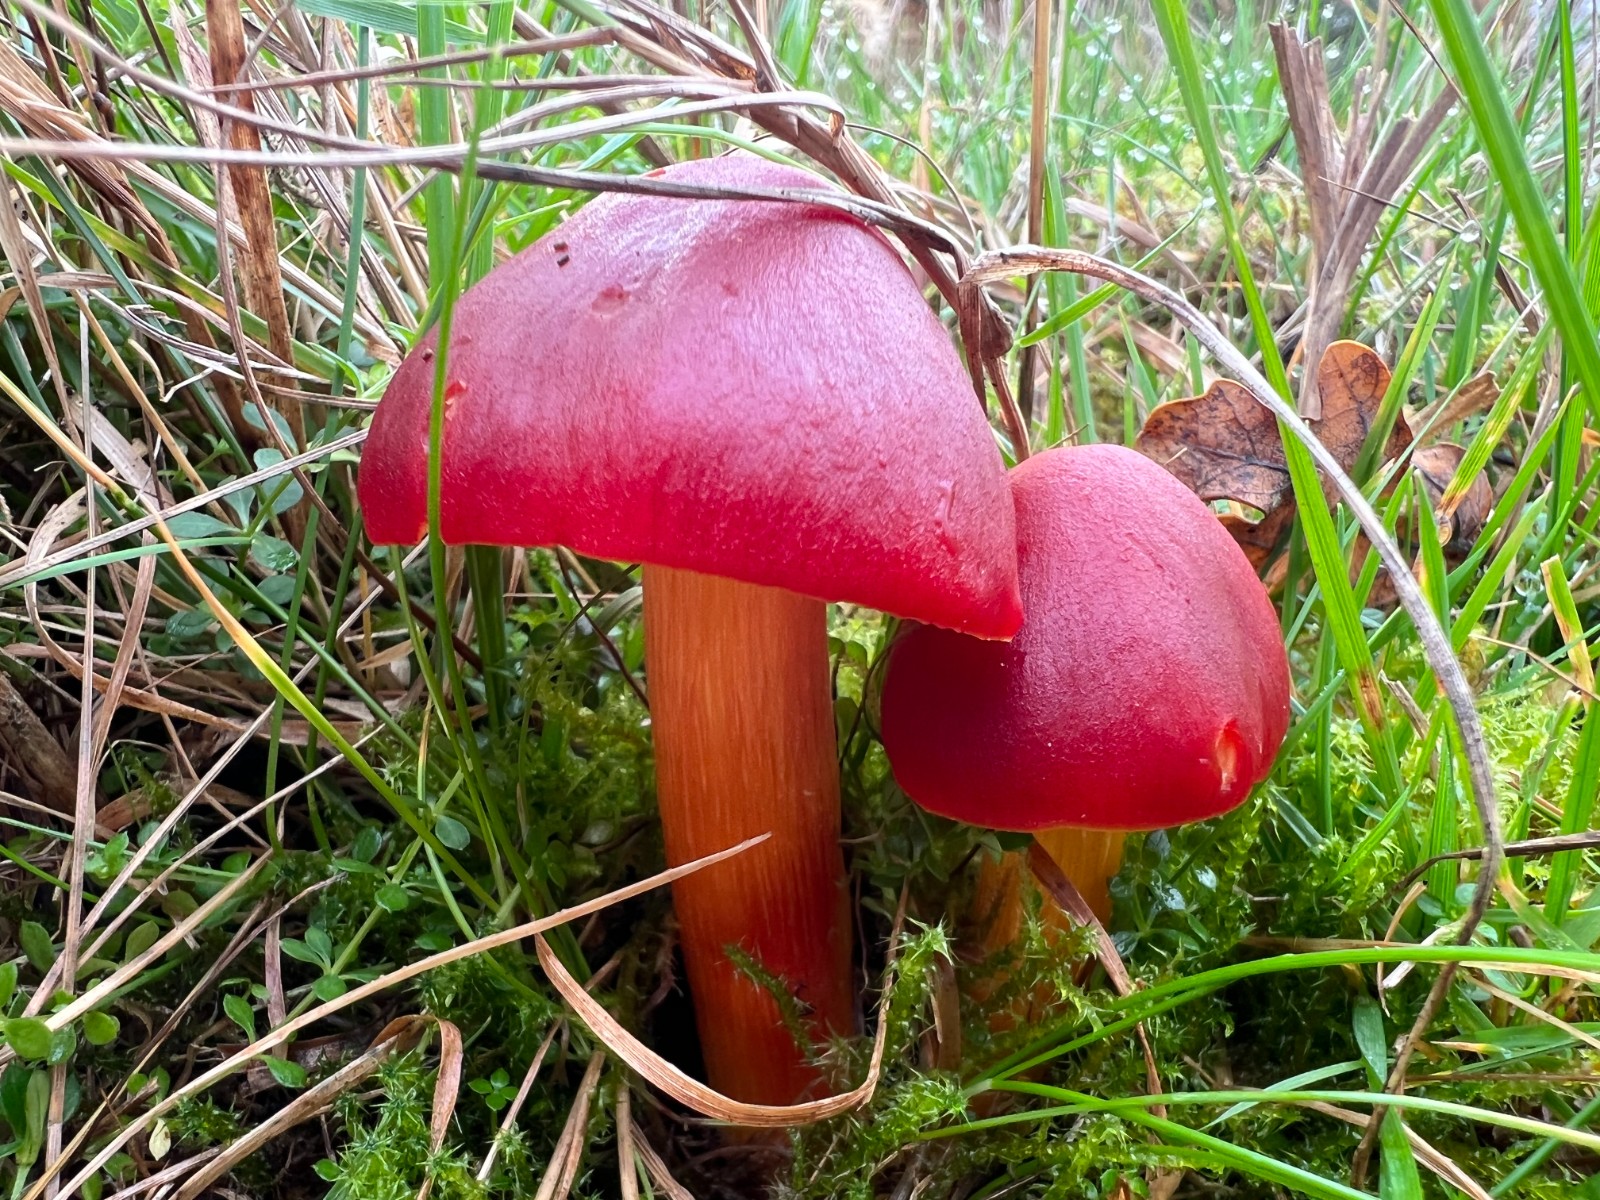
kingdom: Fungi
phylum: Basidiomycota
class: Agaricomycetes
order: Agaricales
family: Hygrophoraceae
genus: Hygrocybe
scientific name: Hygrocybe punicea
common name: skarlagen-vokshat
